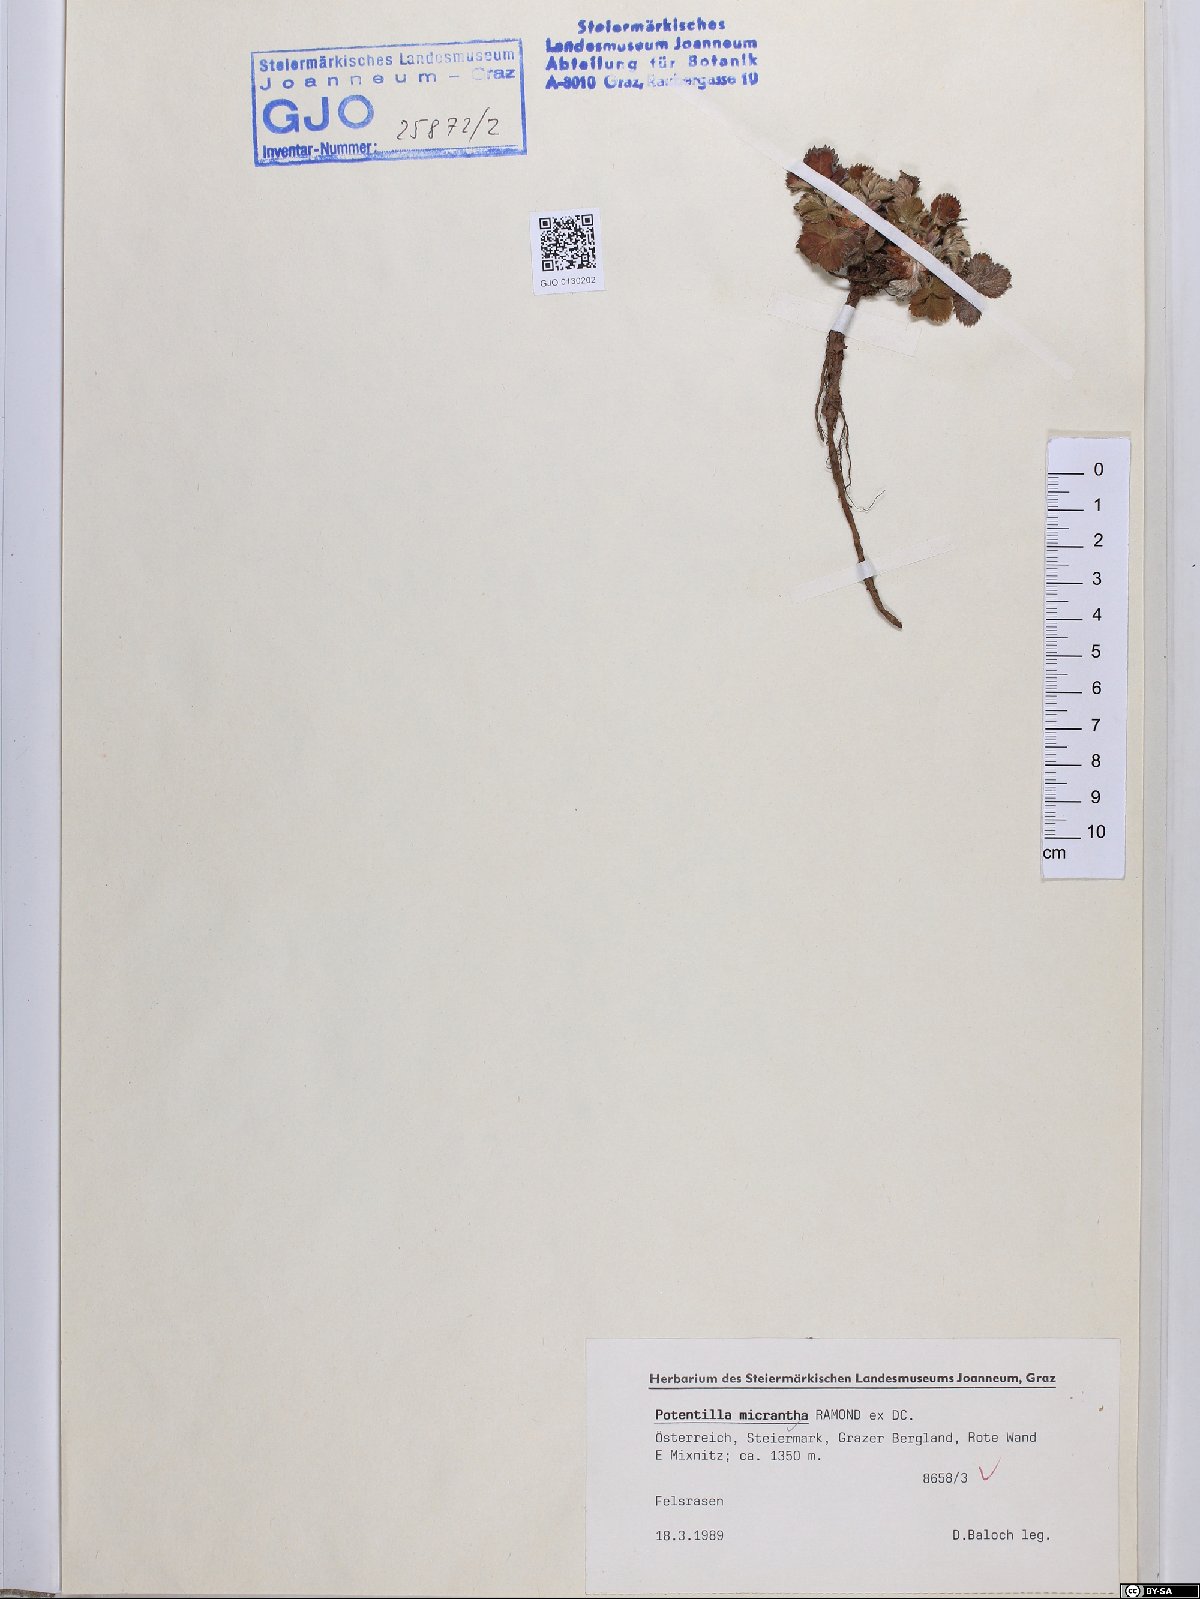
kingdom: Plantae
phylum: Tracheophyta
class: Magnoliopsida
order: Rosales
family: Rosaceae
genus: Potentilla
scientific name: Potentilla micrantha
